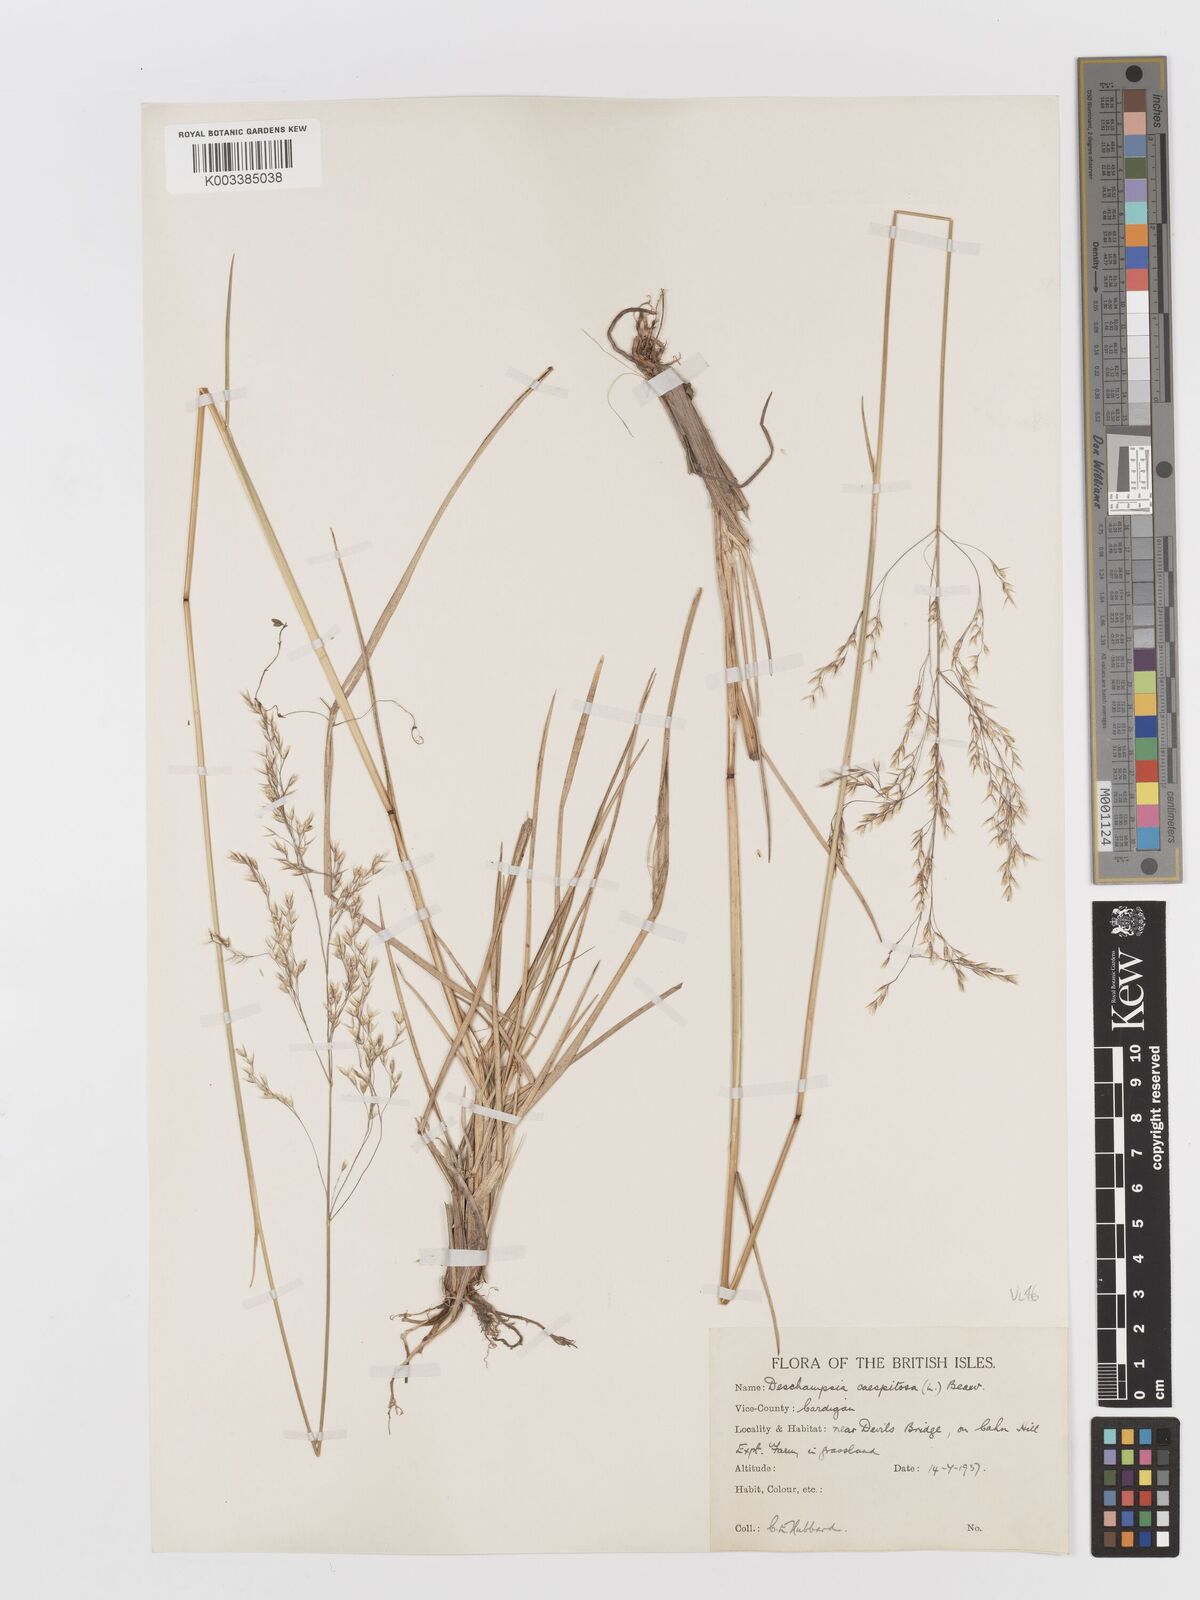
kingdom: Plantae
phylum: Tracheophyta
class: Liliopsida
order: Poales
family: Poaceae
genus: Deschampsia
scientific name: Deschampsia cespitosa
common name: Tufted hair-grass
